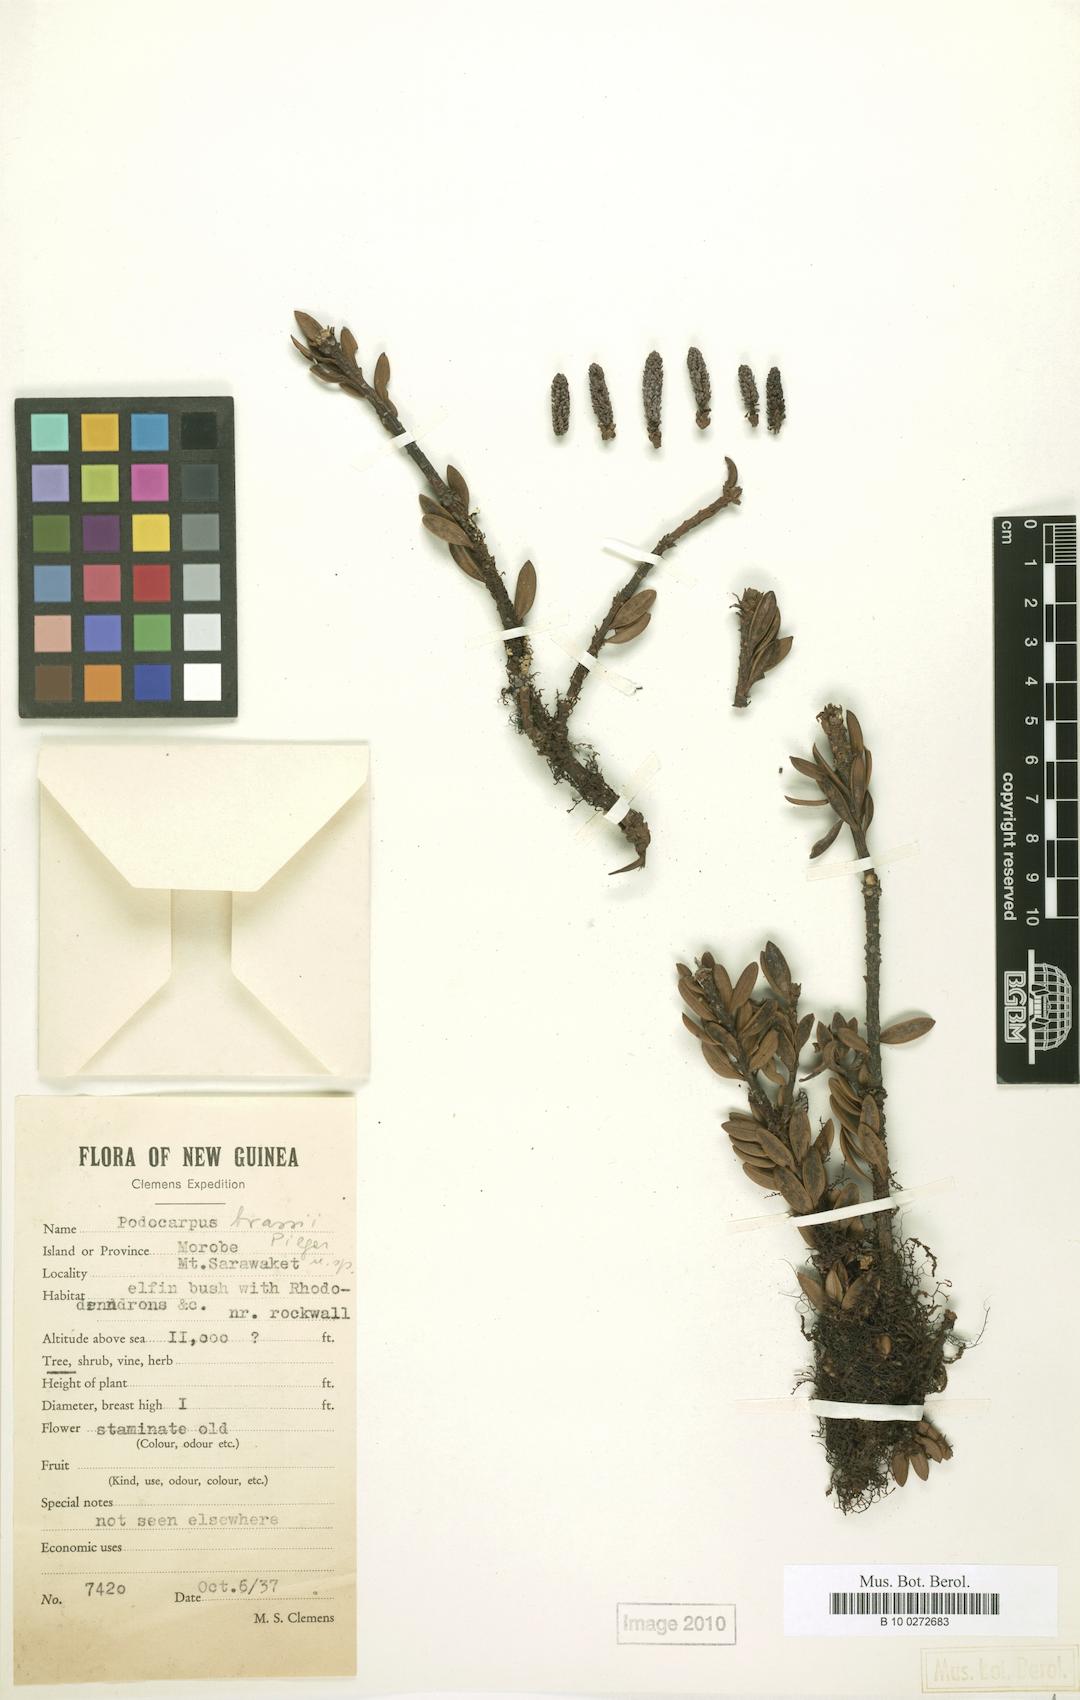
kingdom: Plantae
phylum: Tracheophyta
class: Pinopsida
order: Pinales
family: Podocarpaceae
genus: Podocarpus
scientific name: Podocarpus brassii
